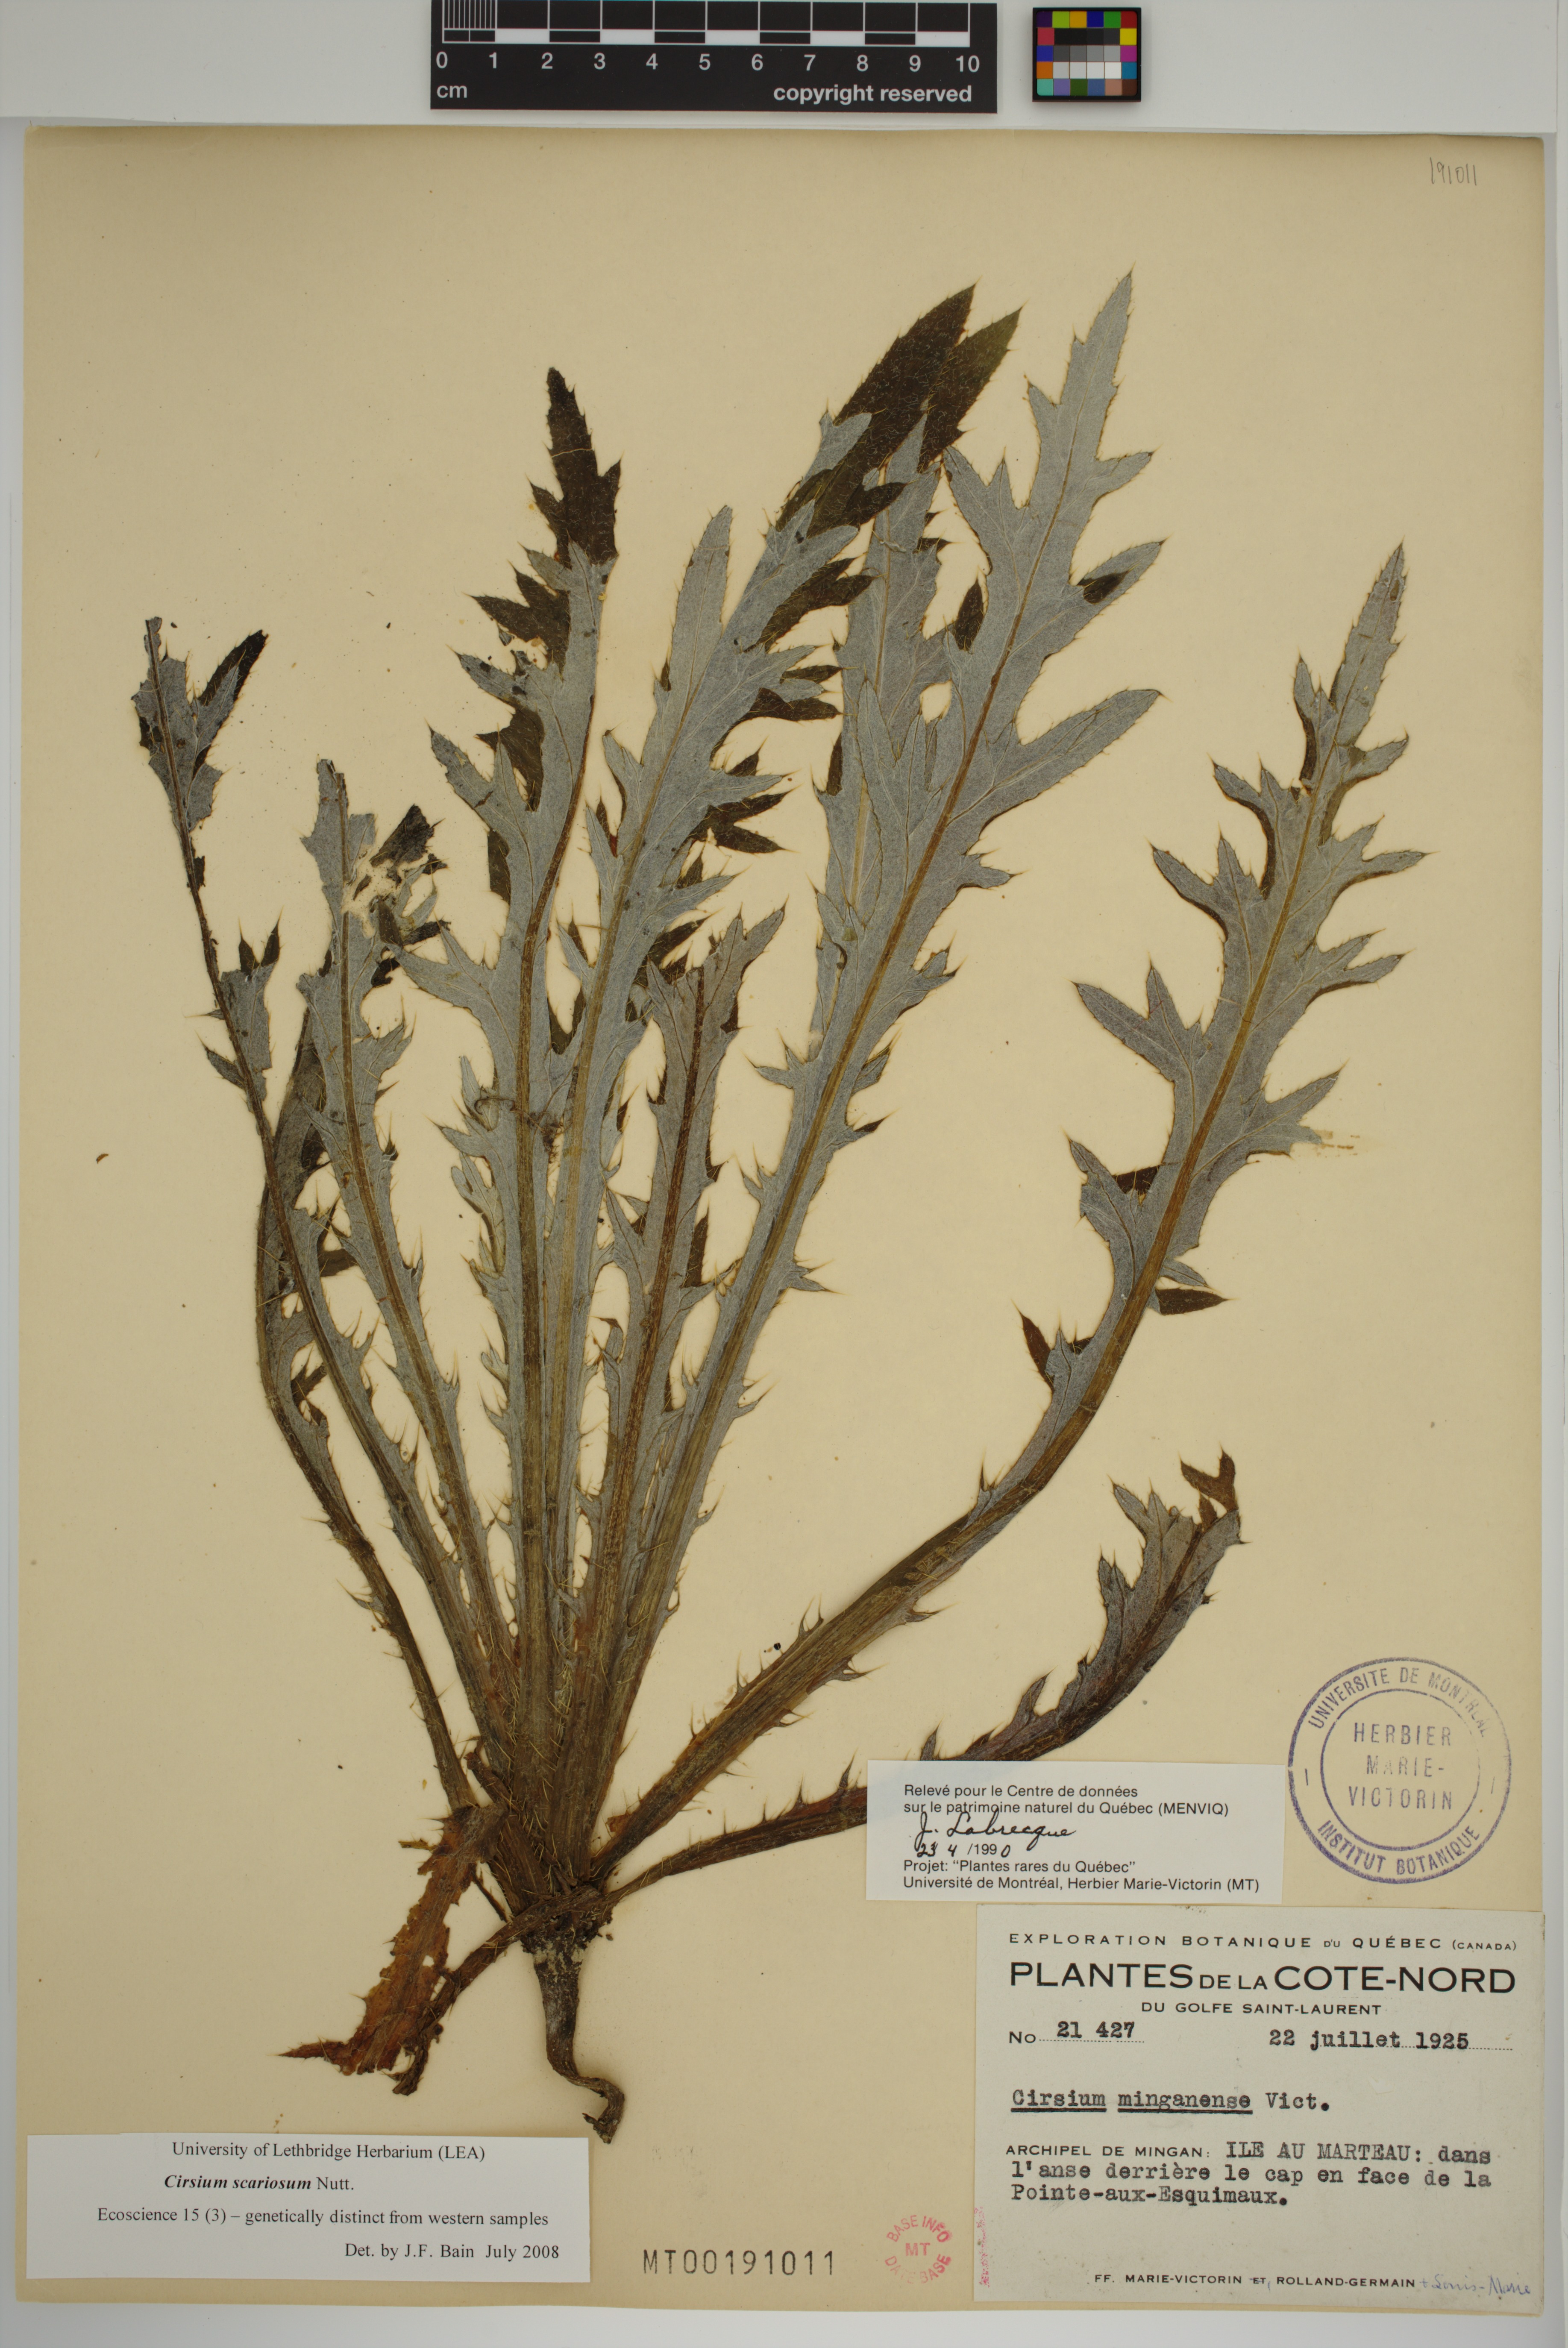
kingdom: Plantae
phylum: Tracheophyta
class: Magnoliopsida
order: Asterales
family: Asteraceae
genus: Cirsium
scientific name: Cirsium scariosum
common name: Meadow thistle
